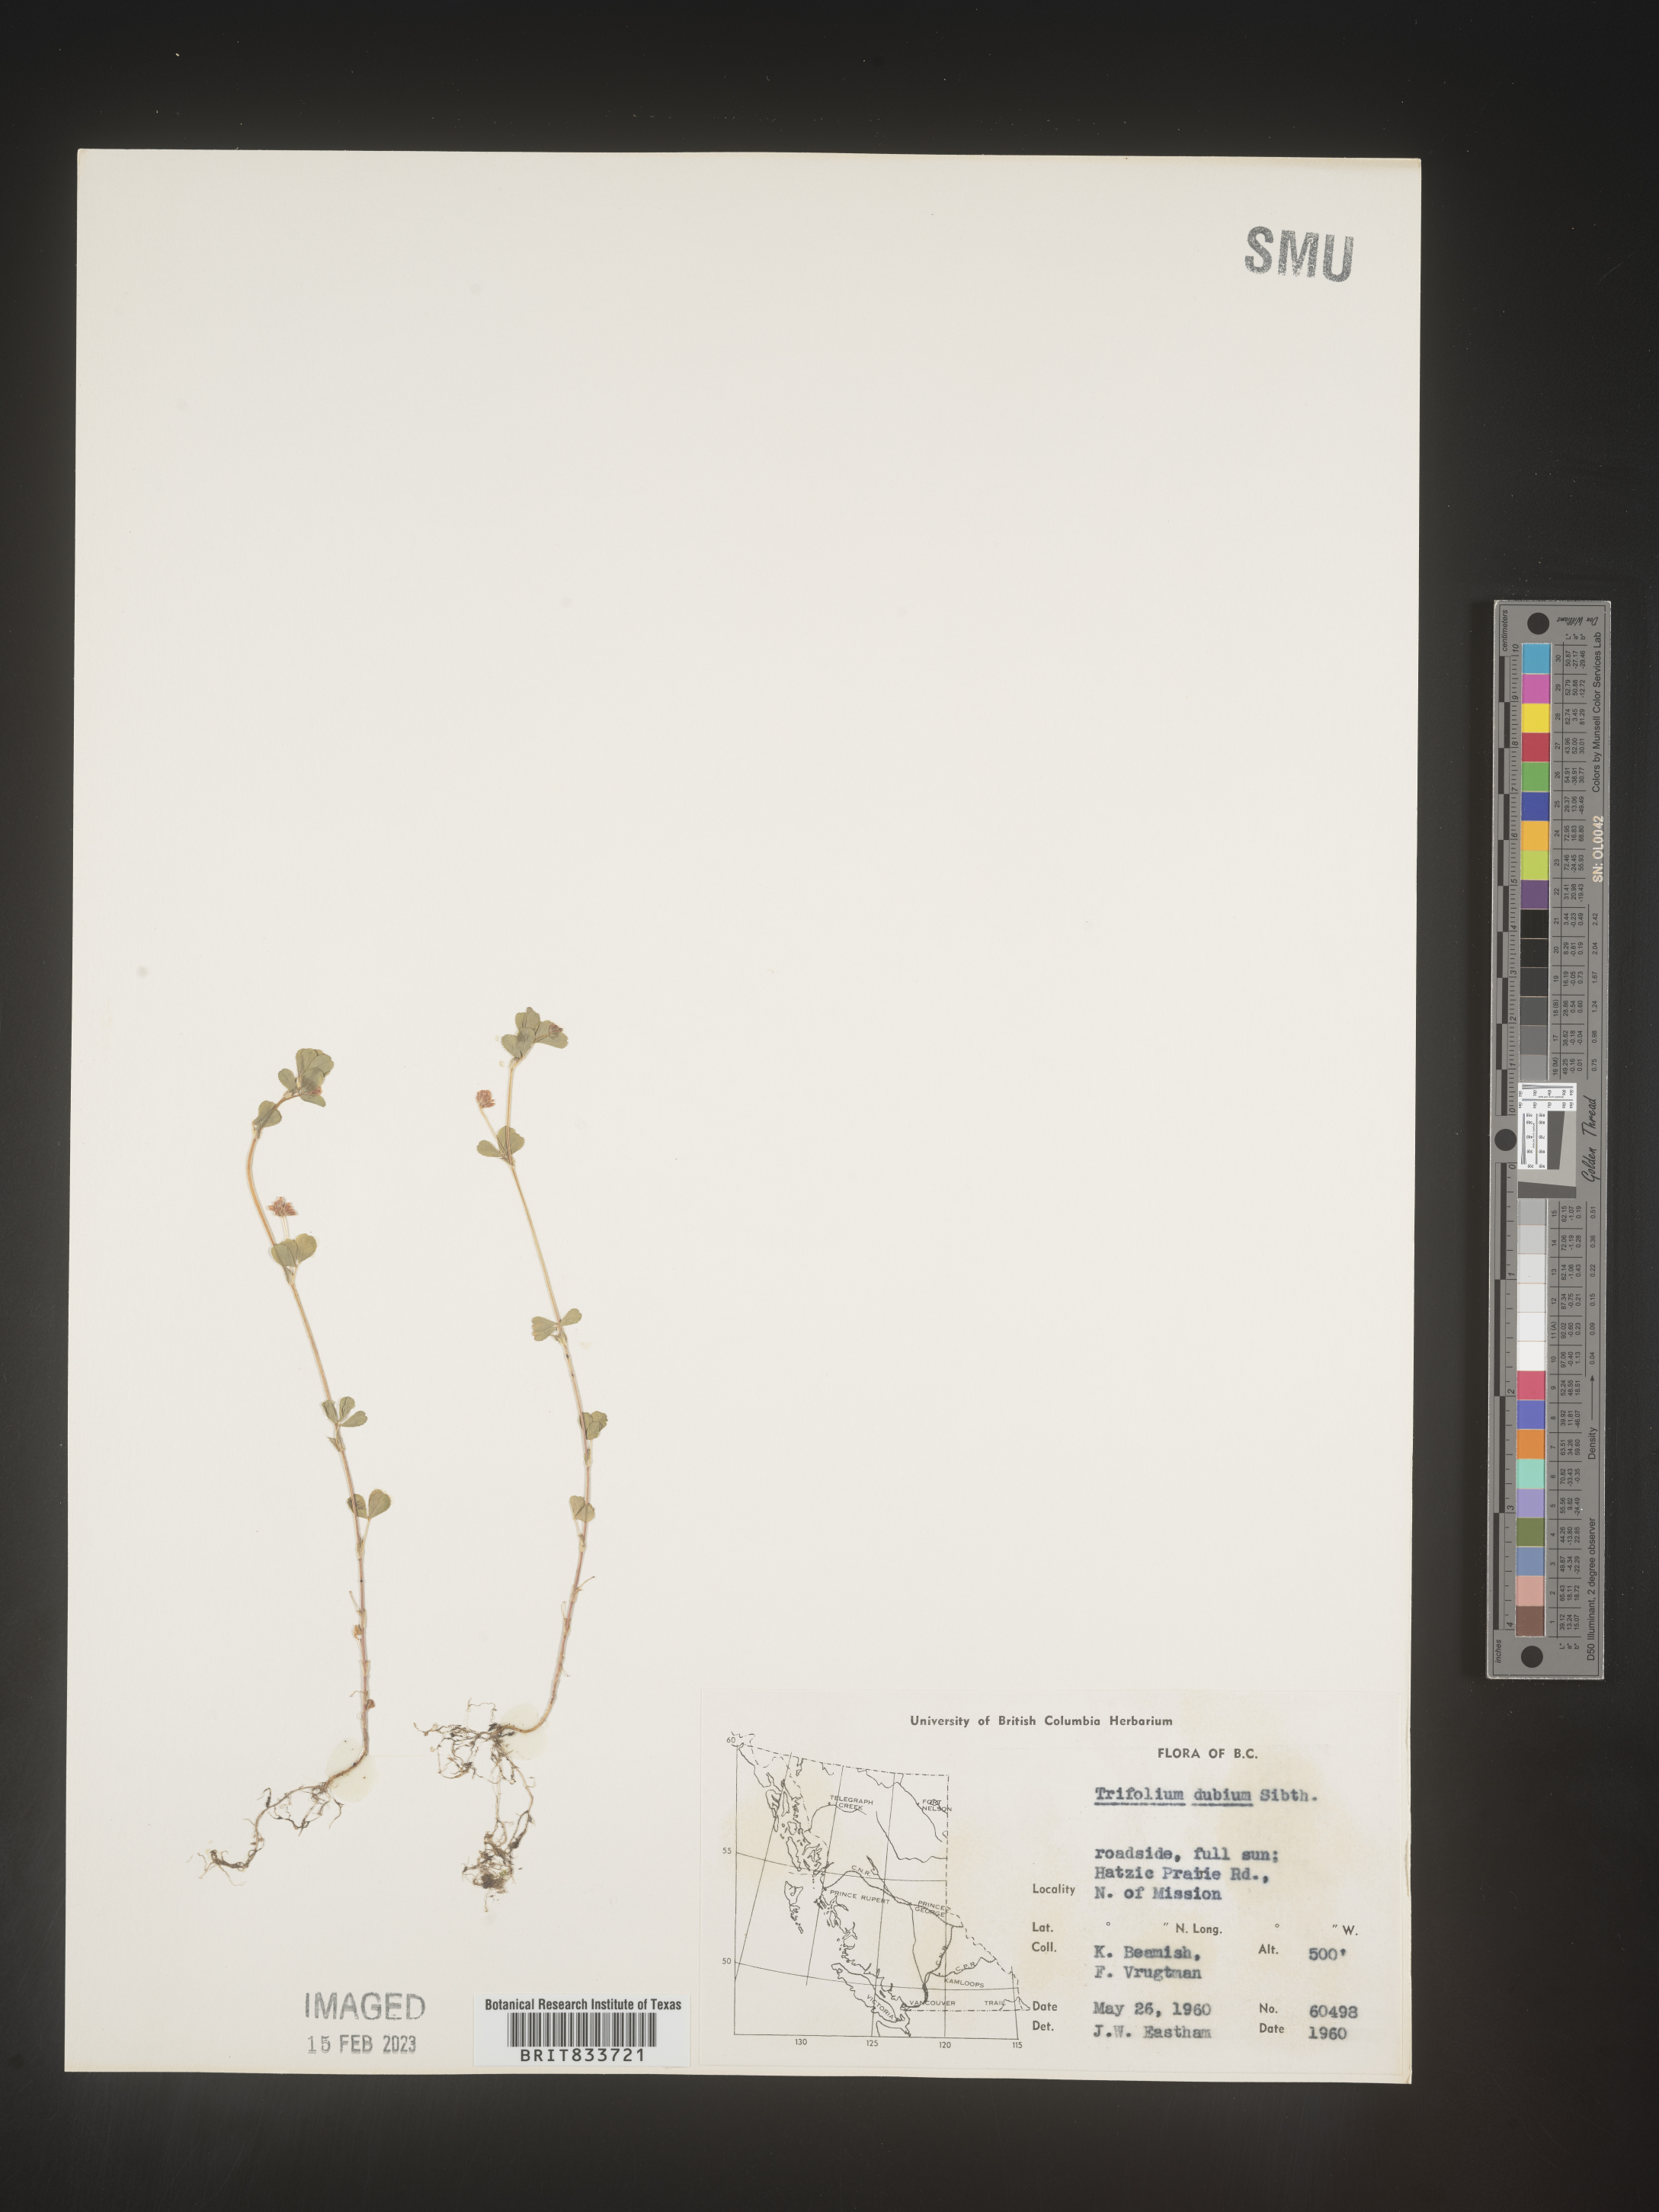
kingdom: Plantae
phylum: Tracheophyta
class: Magnoliopsida
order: Fabales
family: Fabaceae
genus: Trifolium
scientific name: Trifolium dubium
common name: Suckling clover
